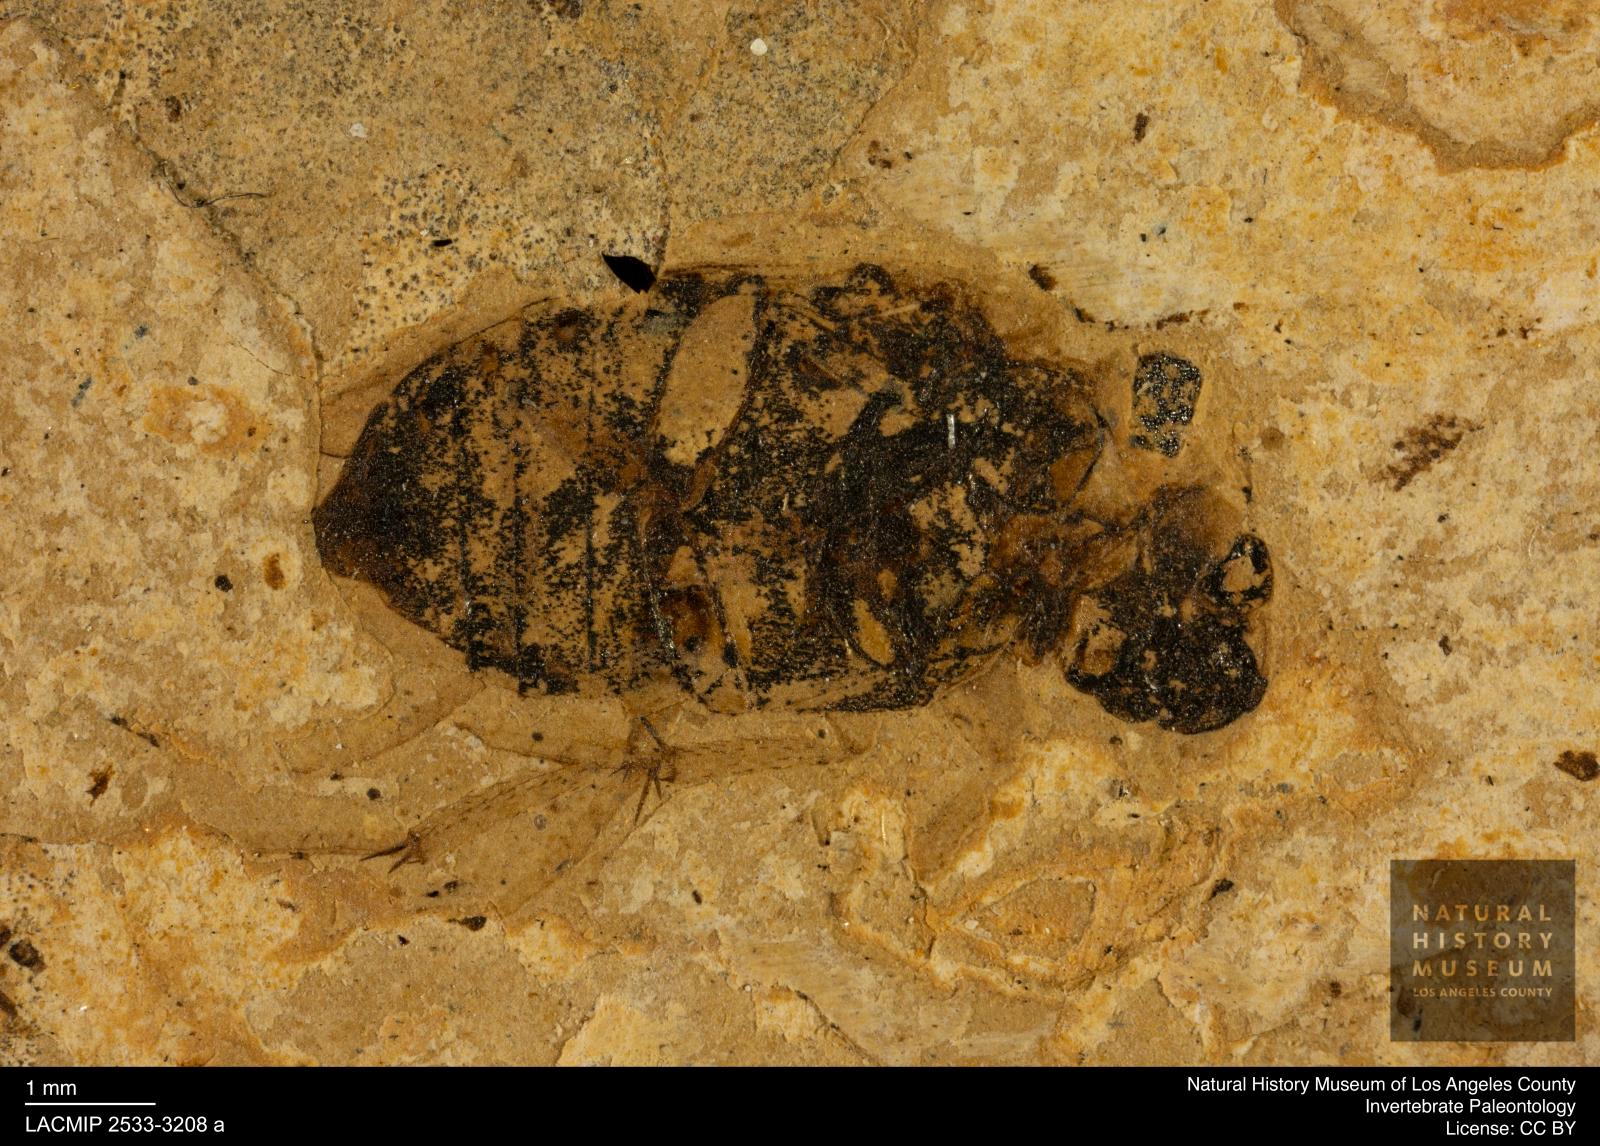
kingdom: Animalia
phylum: Arthropoda
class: Insecta
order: Coleoptera
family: Hydrophilidae
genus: Berosus
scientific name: Berosus morticinus
